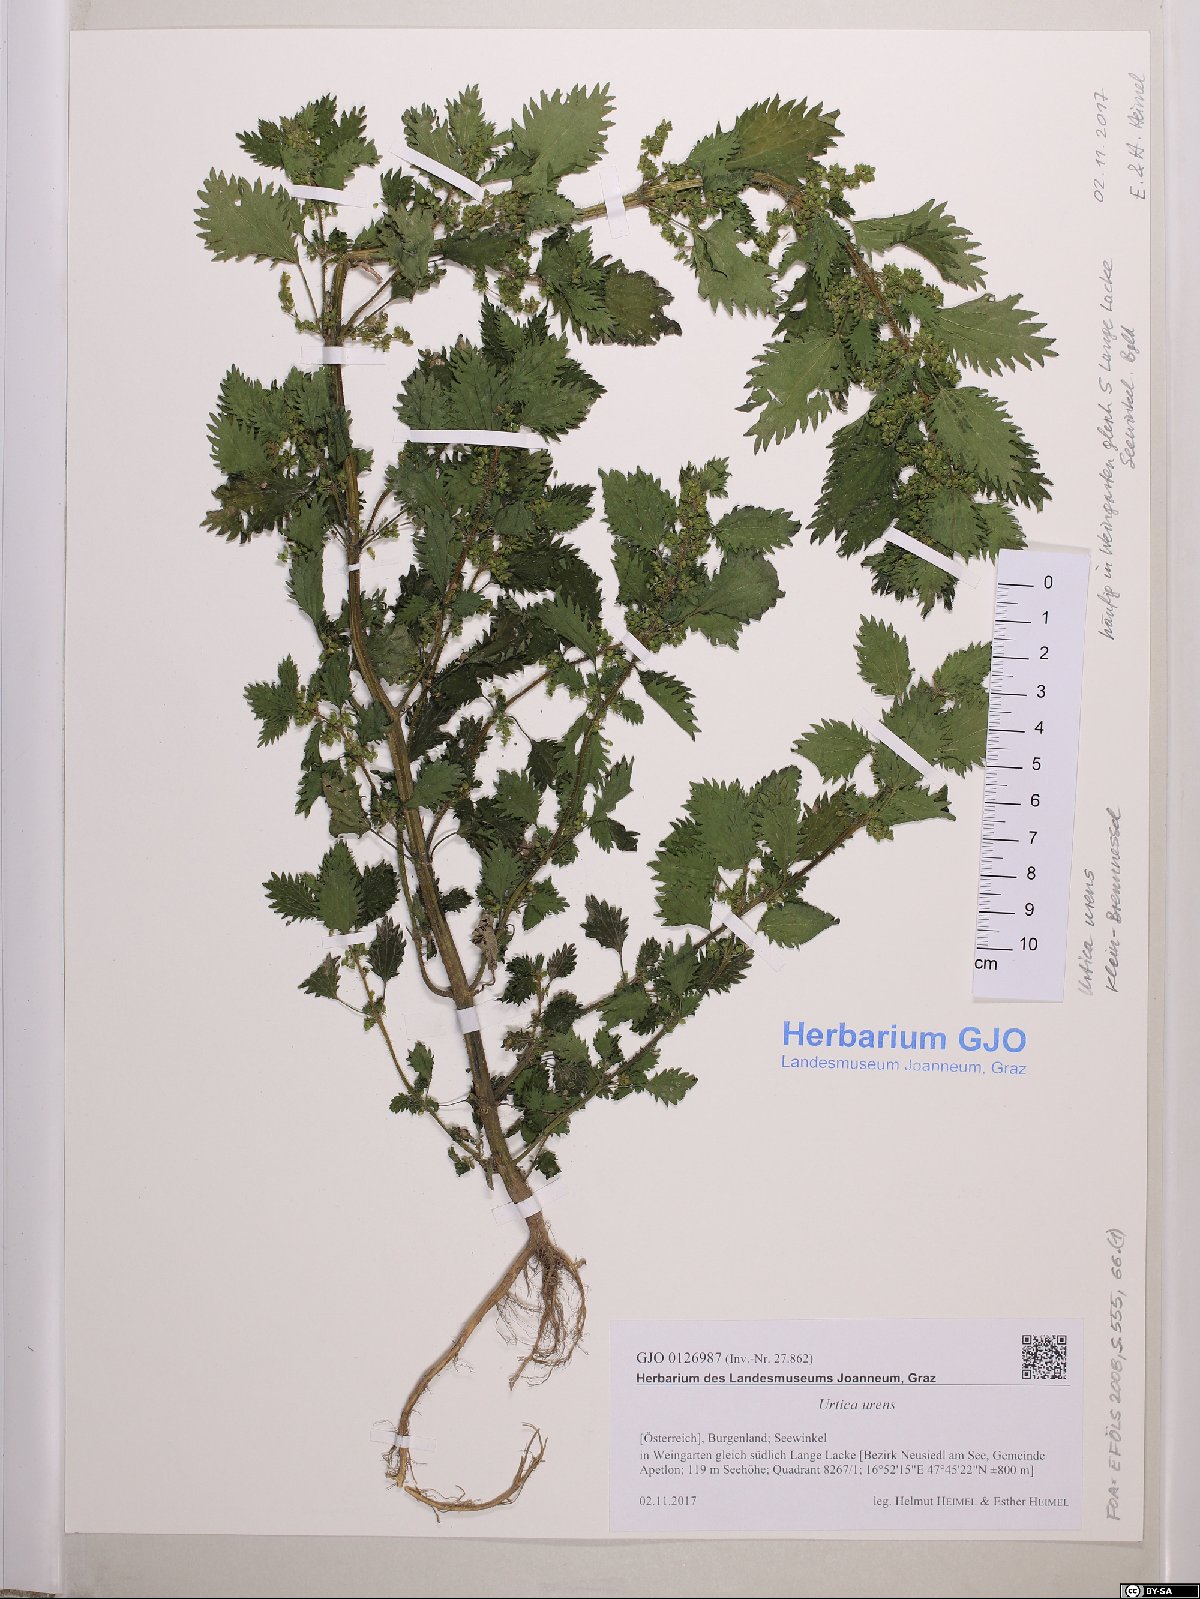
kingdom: Plantae
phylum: Tracheophyta
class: Magnoliopsida
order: Rosales
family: Urticaceae
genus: Urtica
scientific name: Urtica urens
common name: Dwarf nettle
